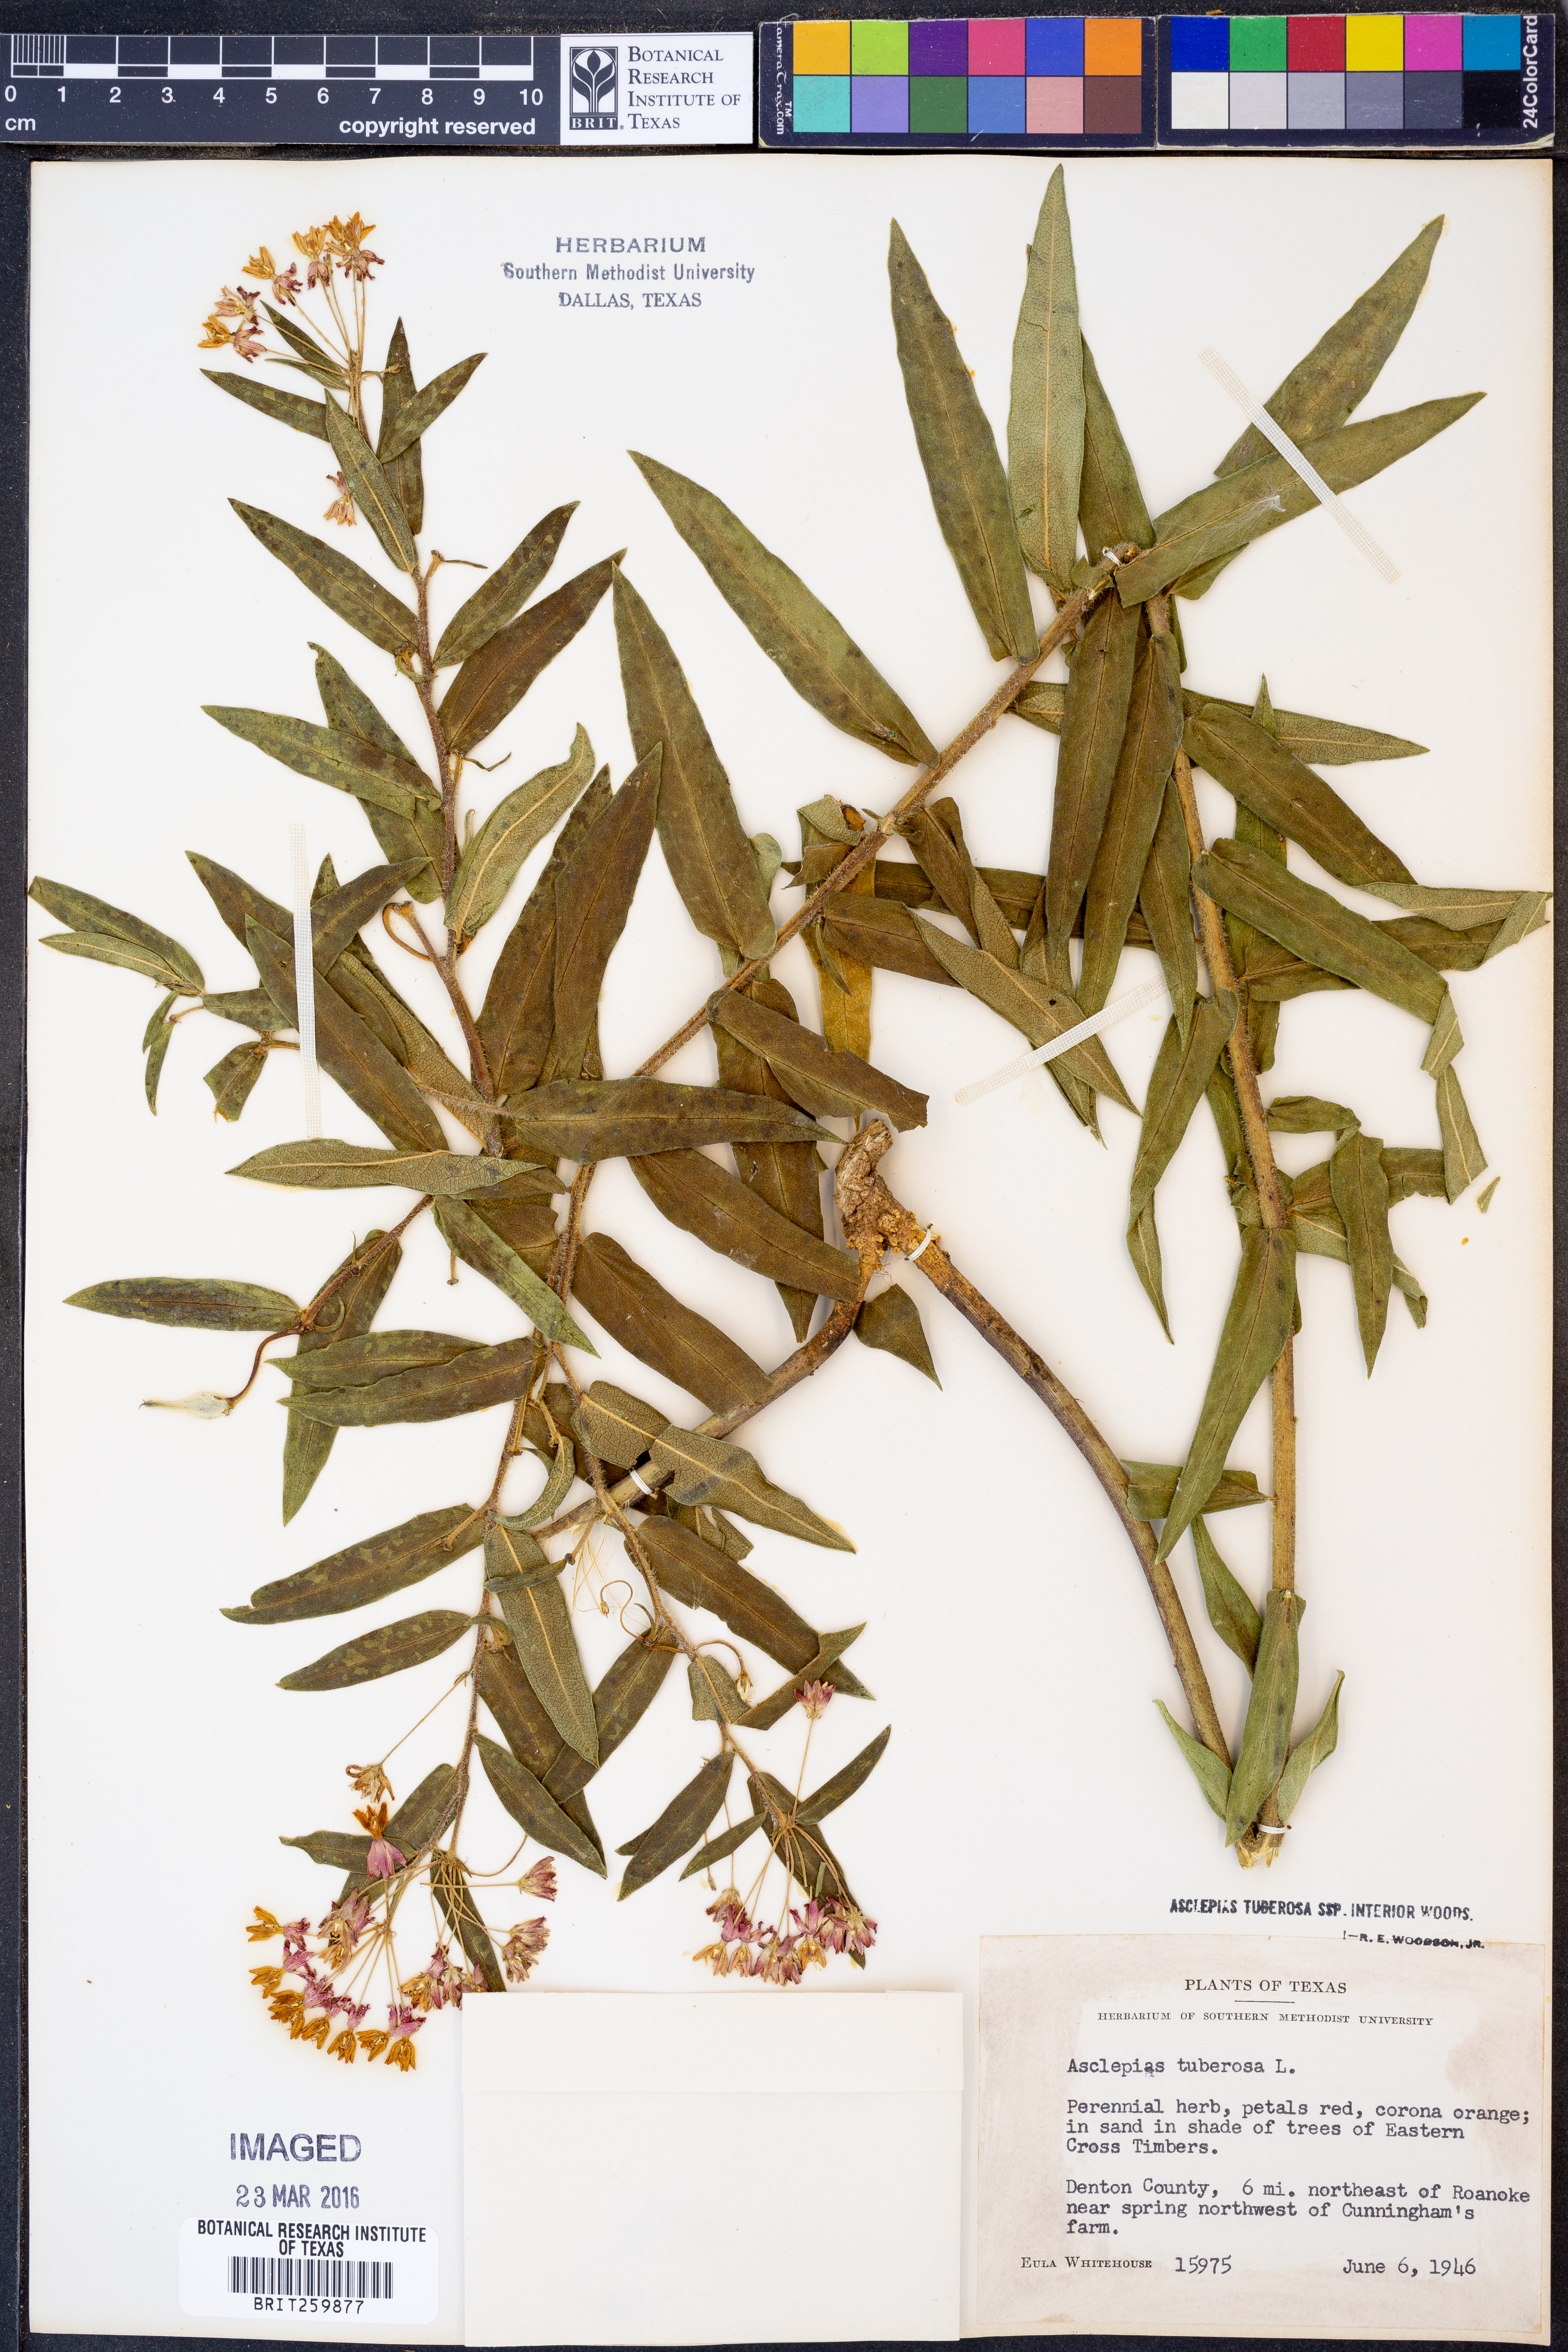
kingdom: Plantae
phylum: Tracheophyta
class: Magnoliopsida
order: Gentianales
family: Apocynaceae
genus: Asclepias
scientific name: Asclepias tuberosa
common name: Butterfly milkweed
